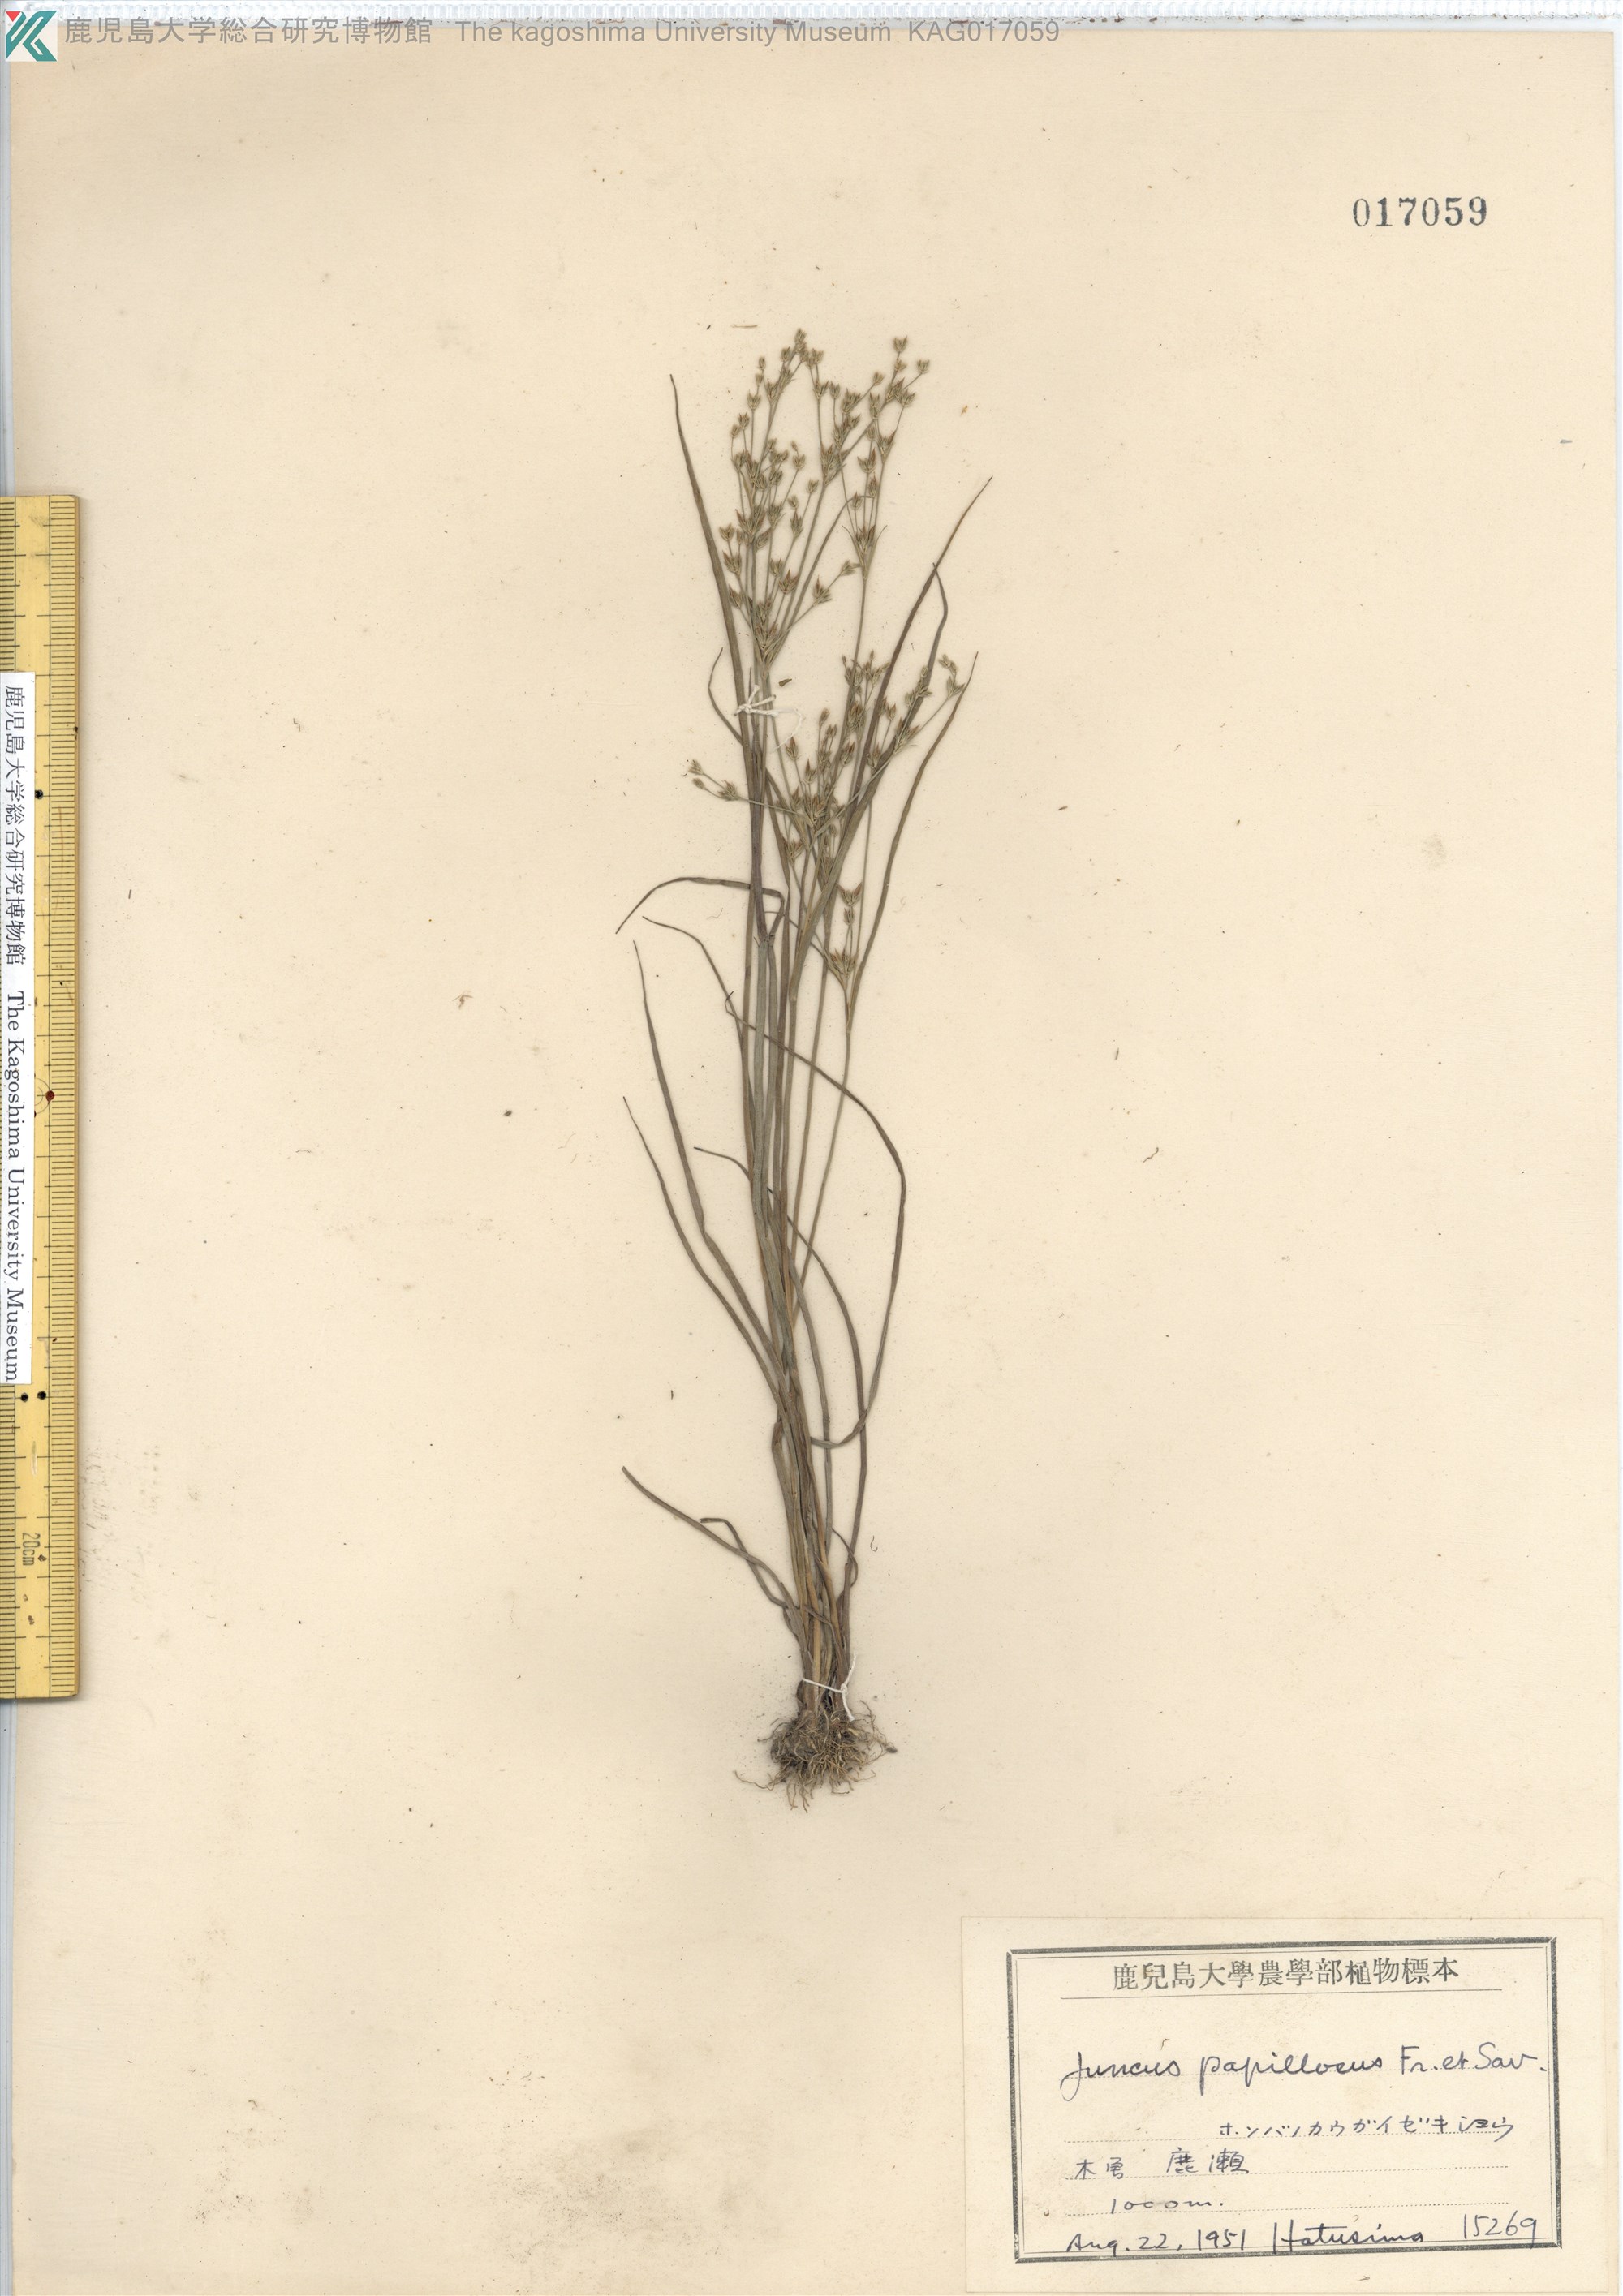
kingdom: Plantae
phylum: Tracheophyta
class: Liliopsida
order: Poales
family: Juncaceae
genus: Juncus
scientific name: Juncus papillosus
